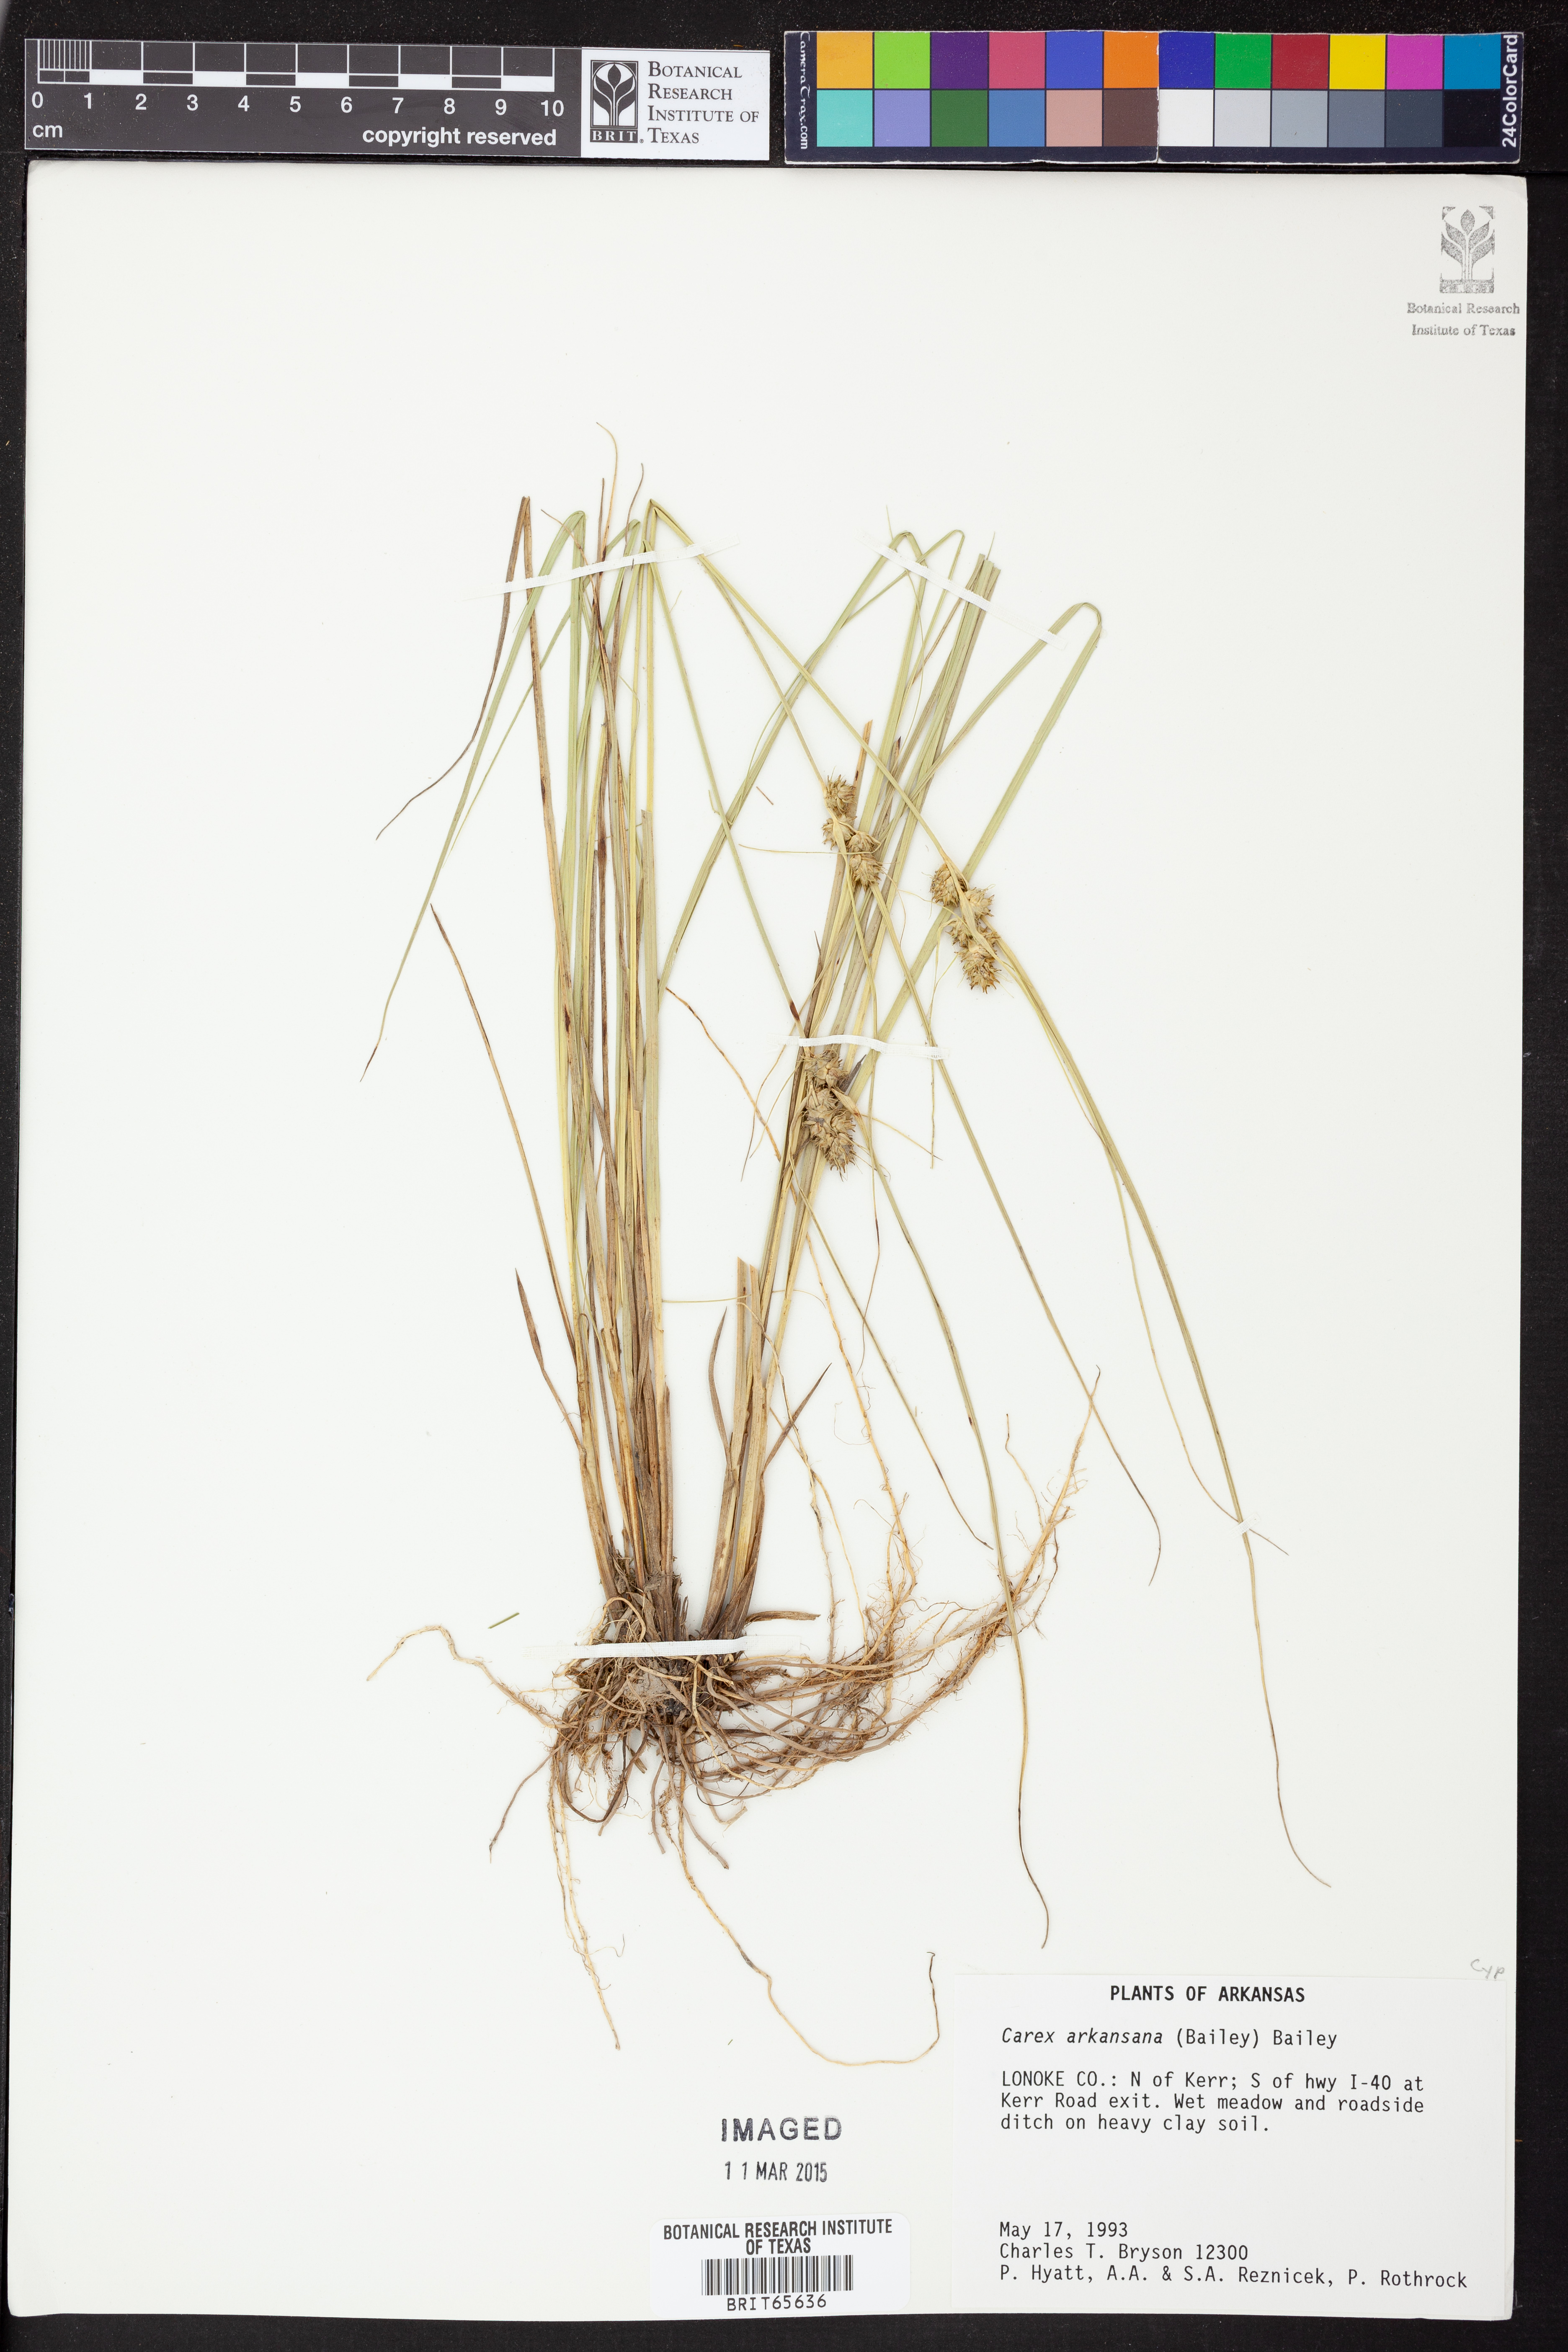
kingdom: Plantae
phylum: Tracheophyta
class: Liliopsida
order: Poales
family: Cyperaceae
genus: Carex
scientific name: Carex arkansana
